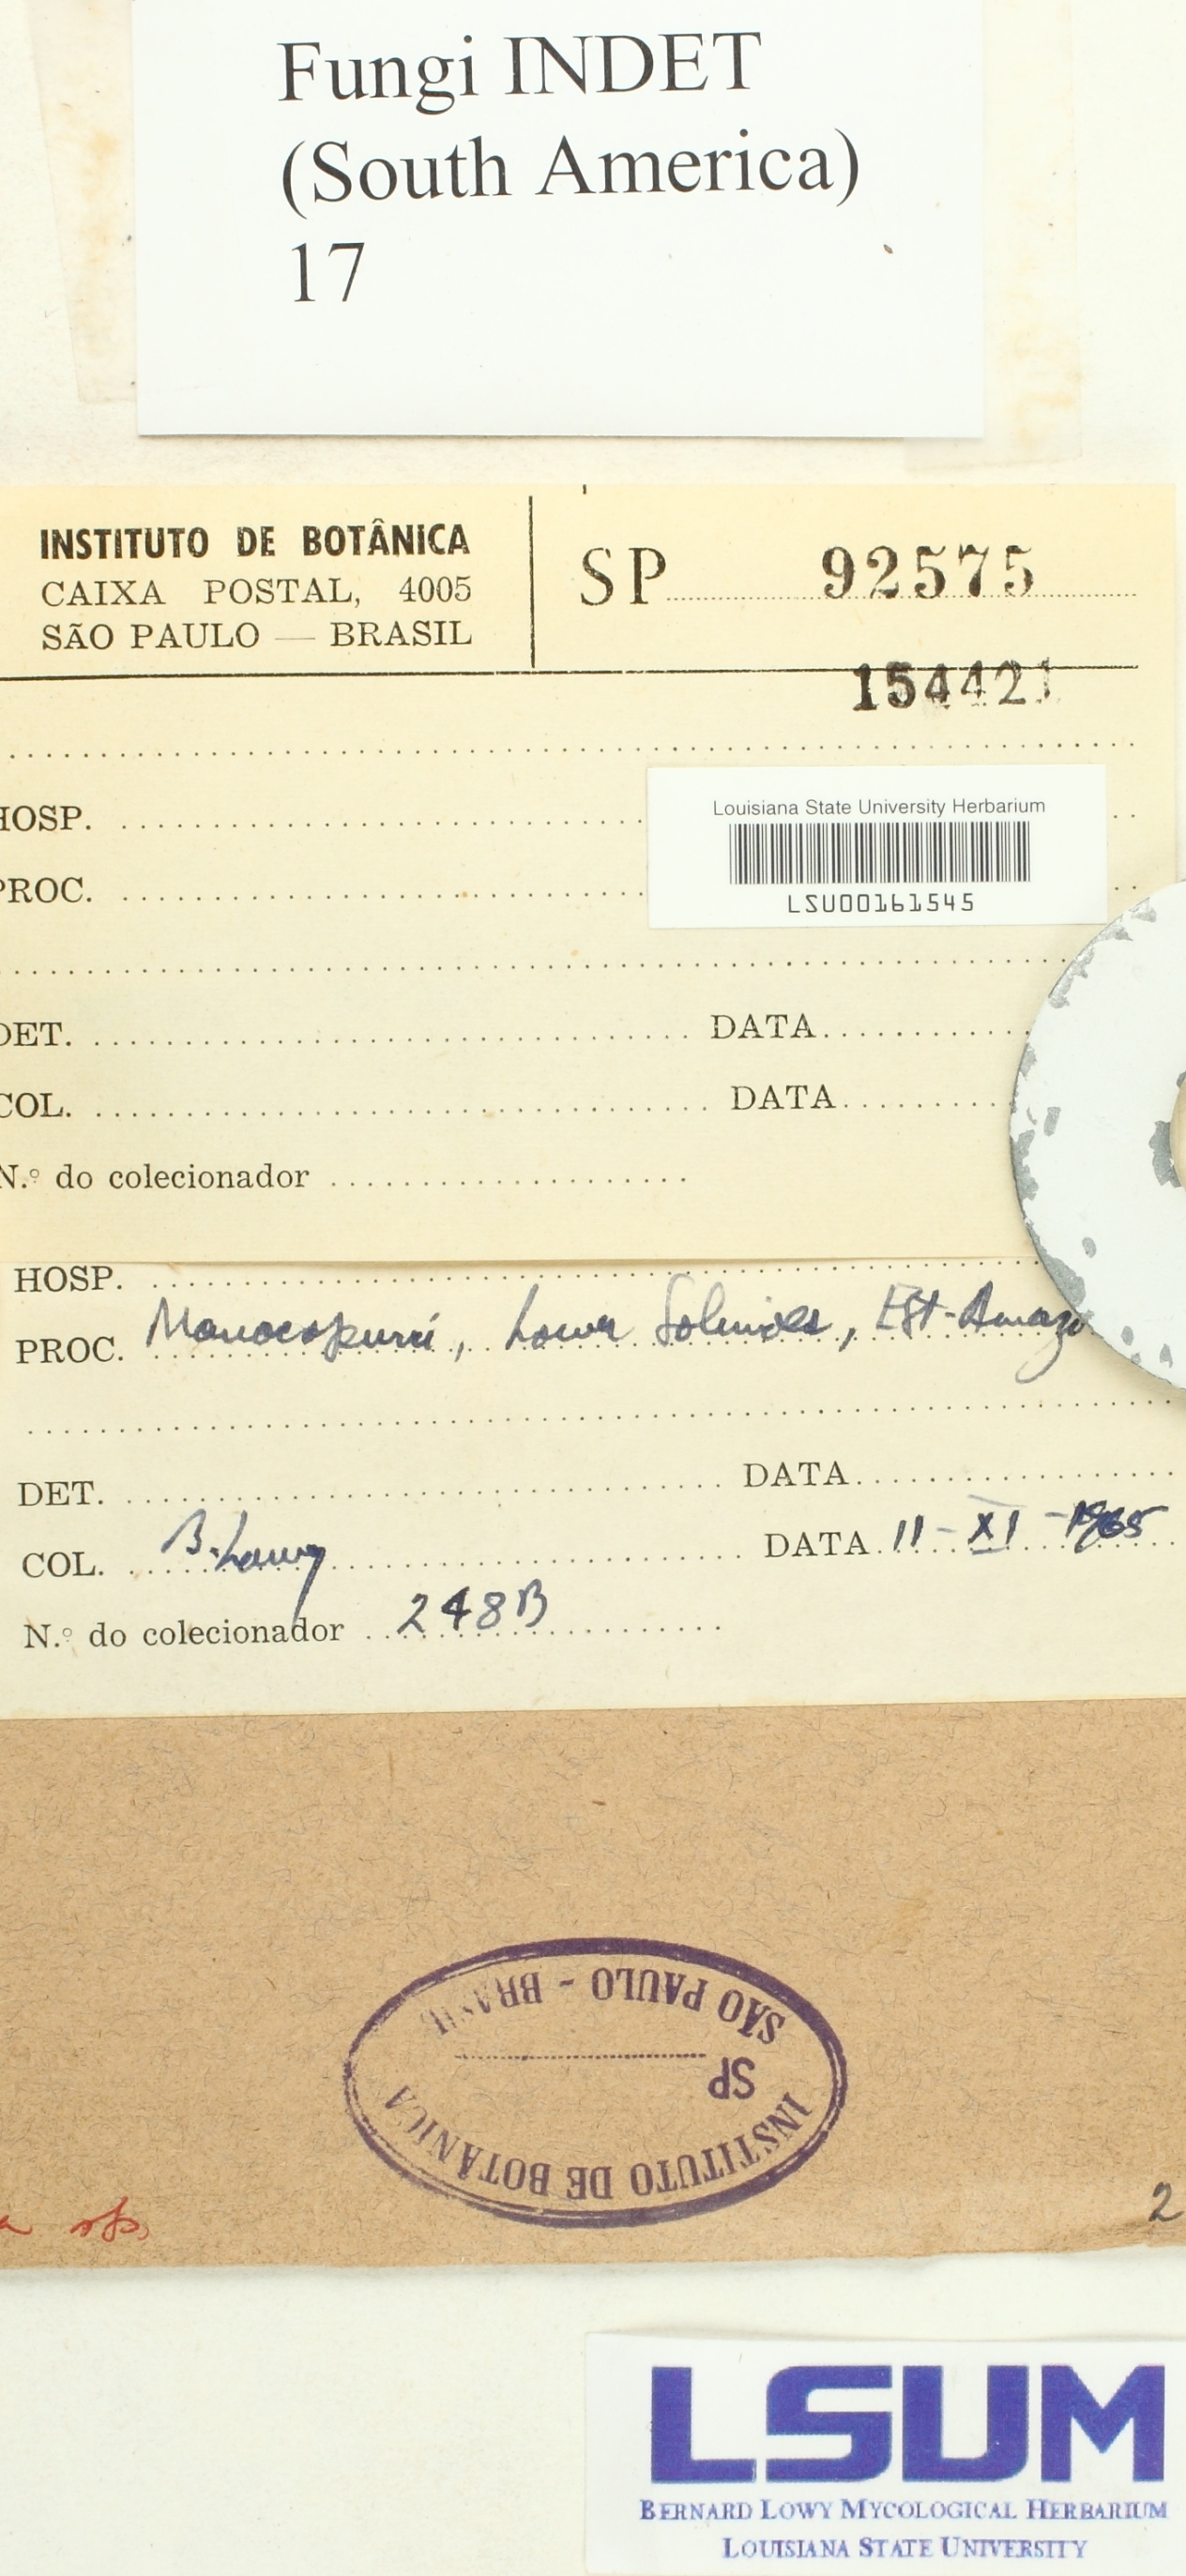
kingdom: Fungi
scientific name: Fungi
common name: Fungi
